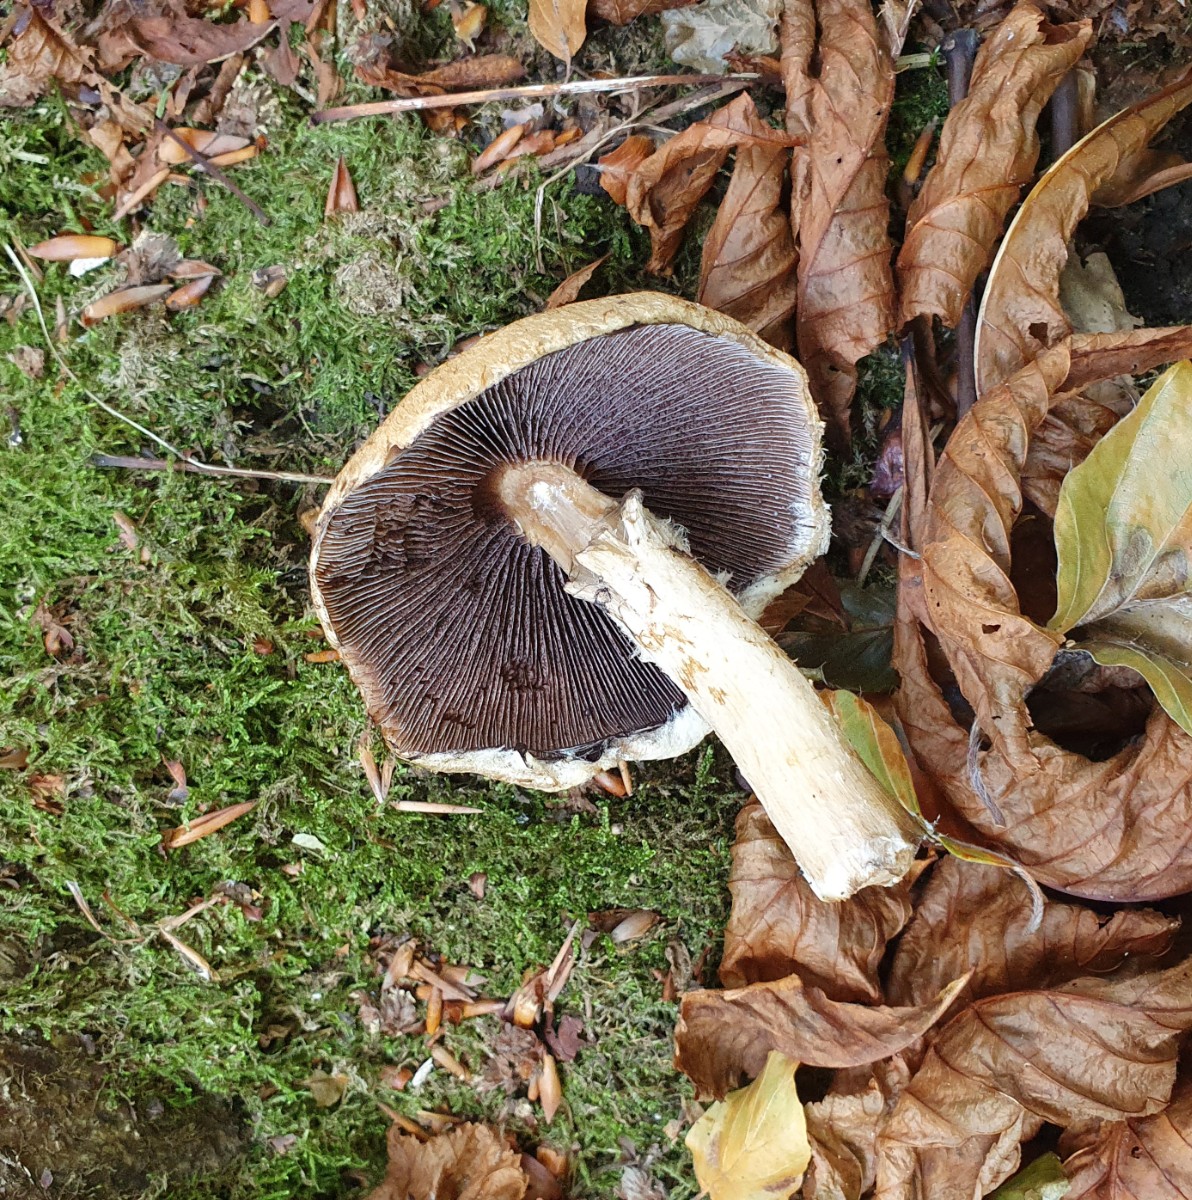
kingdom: Fungi
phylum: Basidiomycota
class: Agaricomycetes
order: Agaricales
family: Psathyrellaceae
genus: Lacrymaria
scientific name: Lacrymaria lacrymabunda
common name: grædende mørkhat
